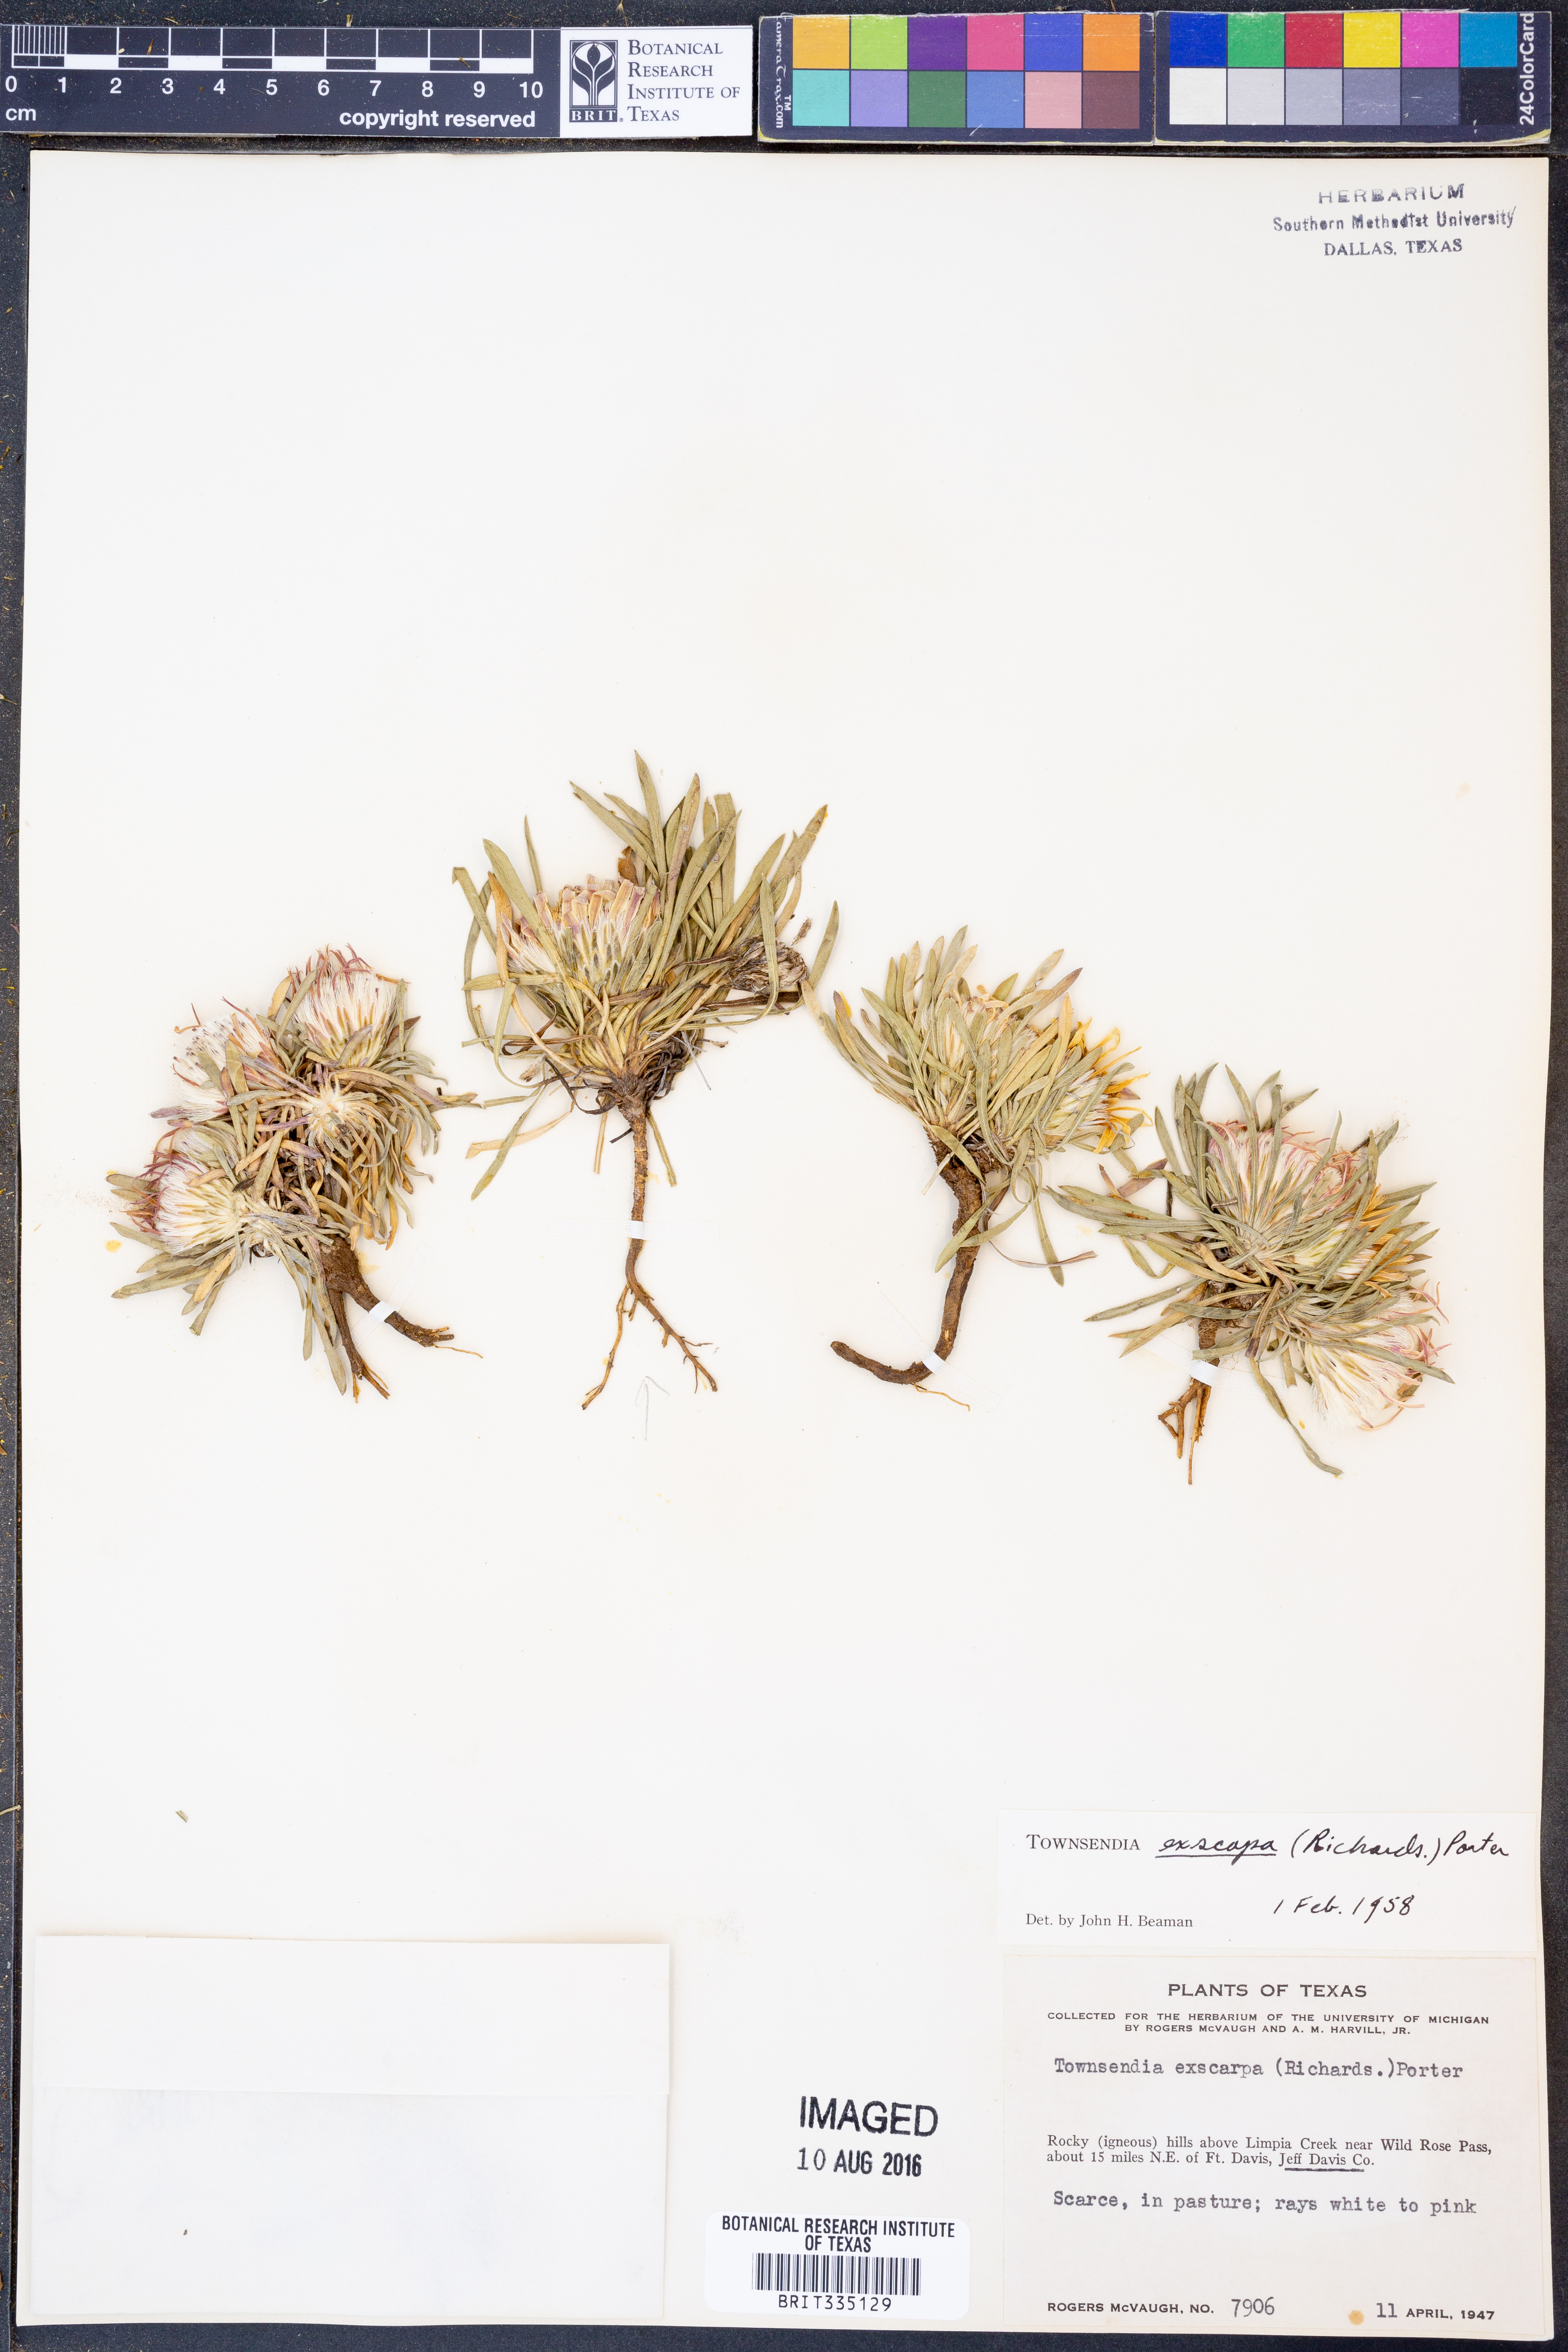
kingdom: Plantae
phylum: Tracheophyta
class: Magnoliopsida
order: Asterales
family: Asteraceae
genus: Townsendia
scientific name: Townsendia exscapa
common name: Dwarf townsendia
